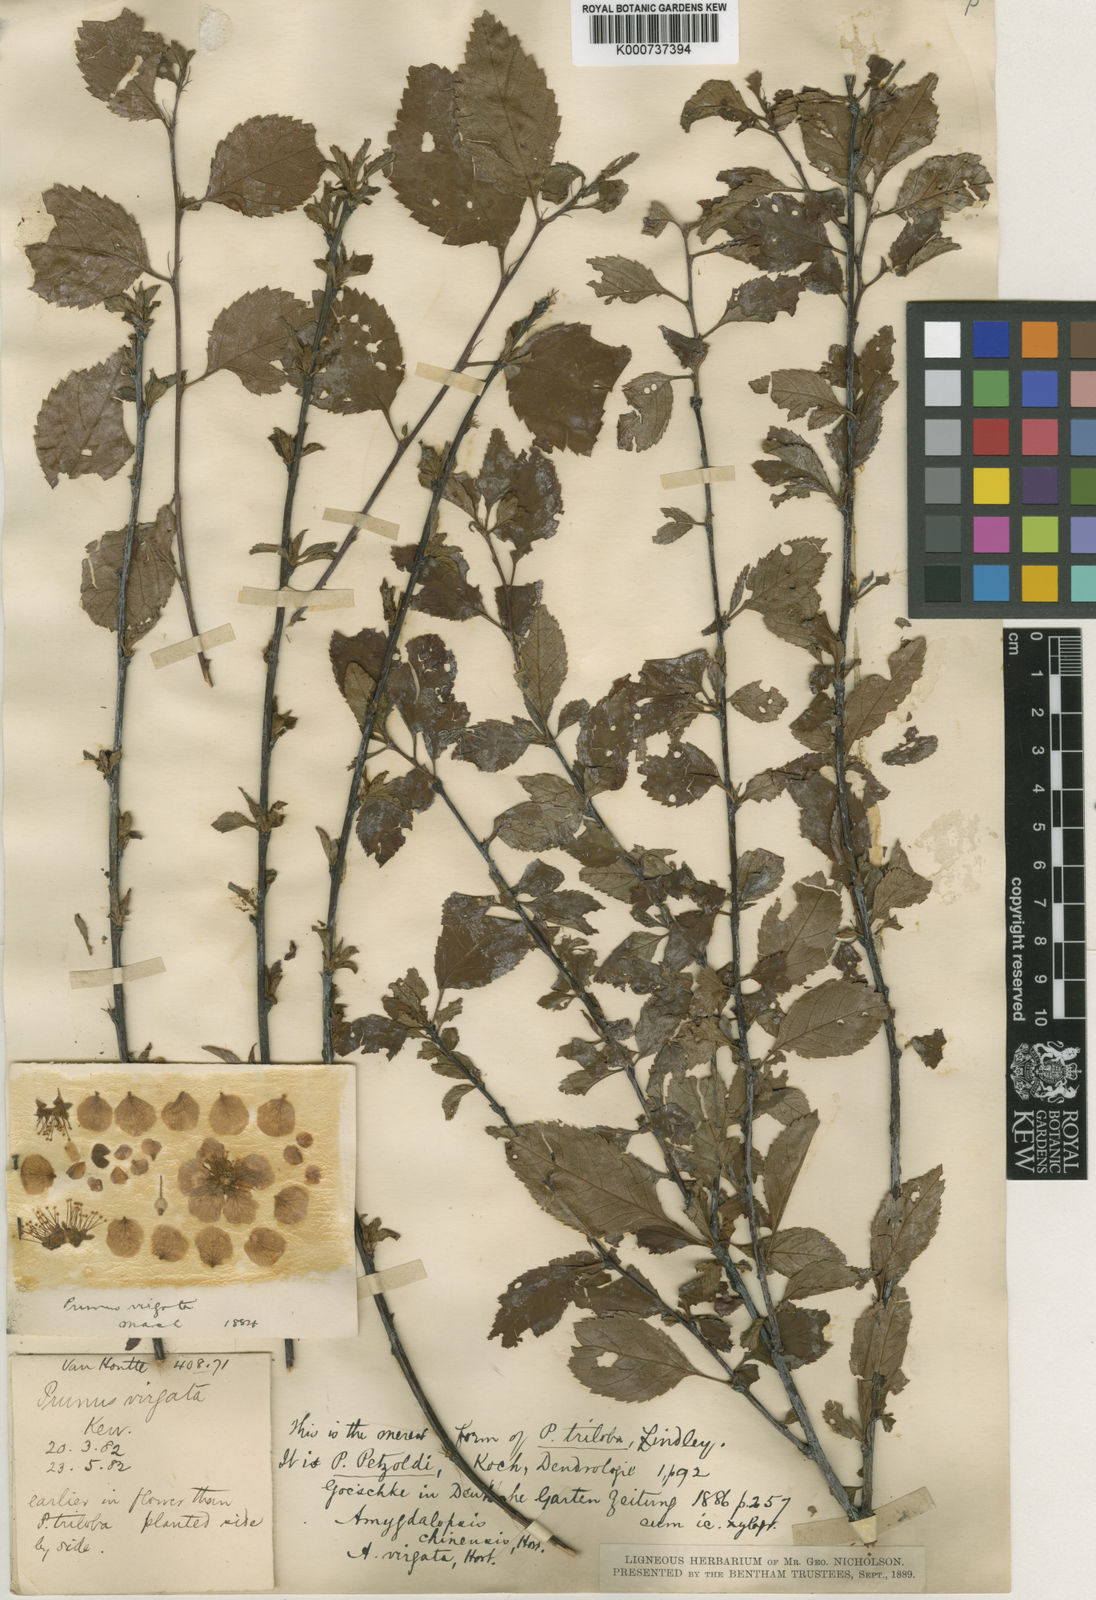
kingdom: Plantae
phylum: Tracheophyta
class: Magnoliopsida
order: Rosales
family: Rosaceae
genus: Prunus
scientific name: Prunus
